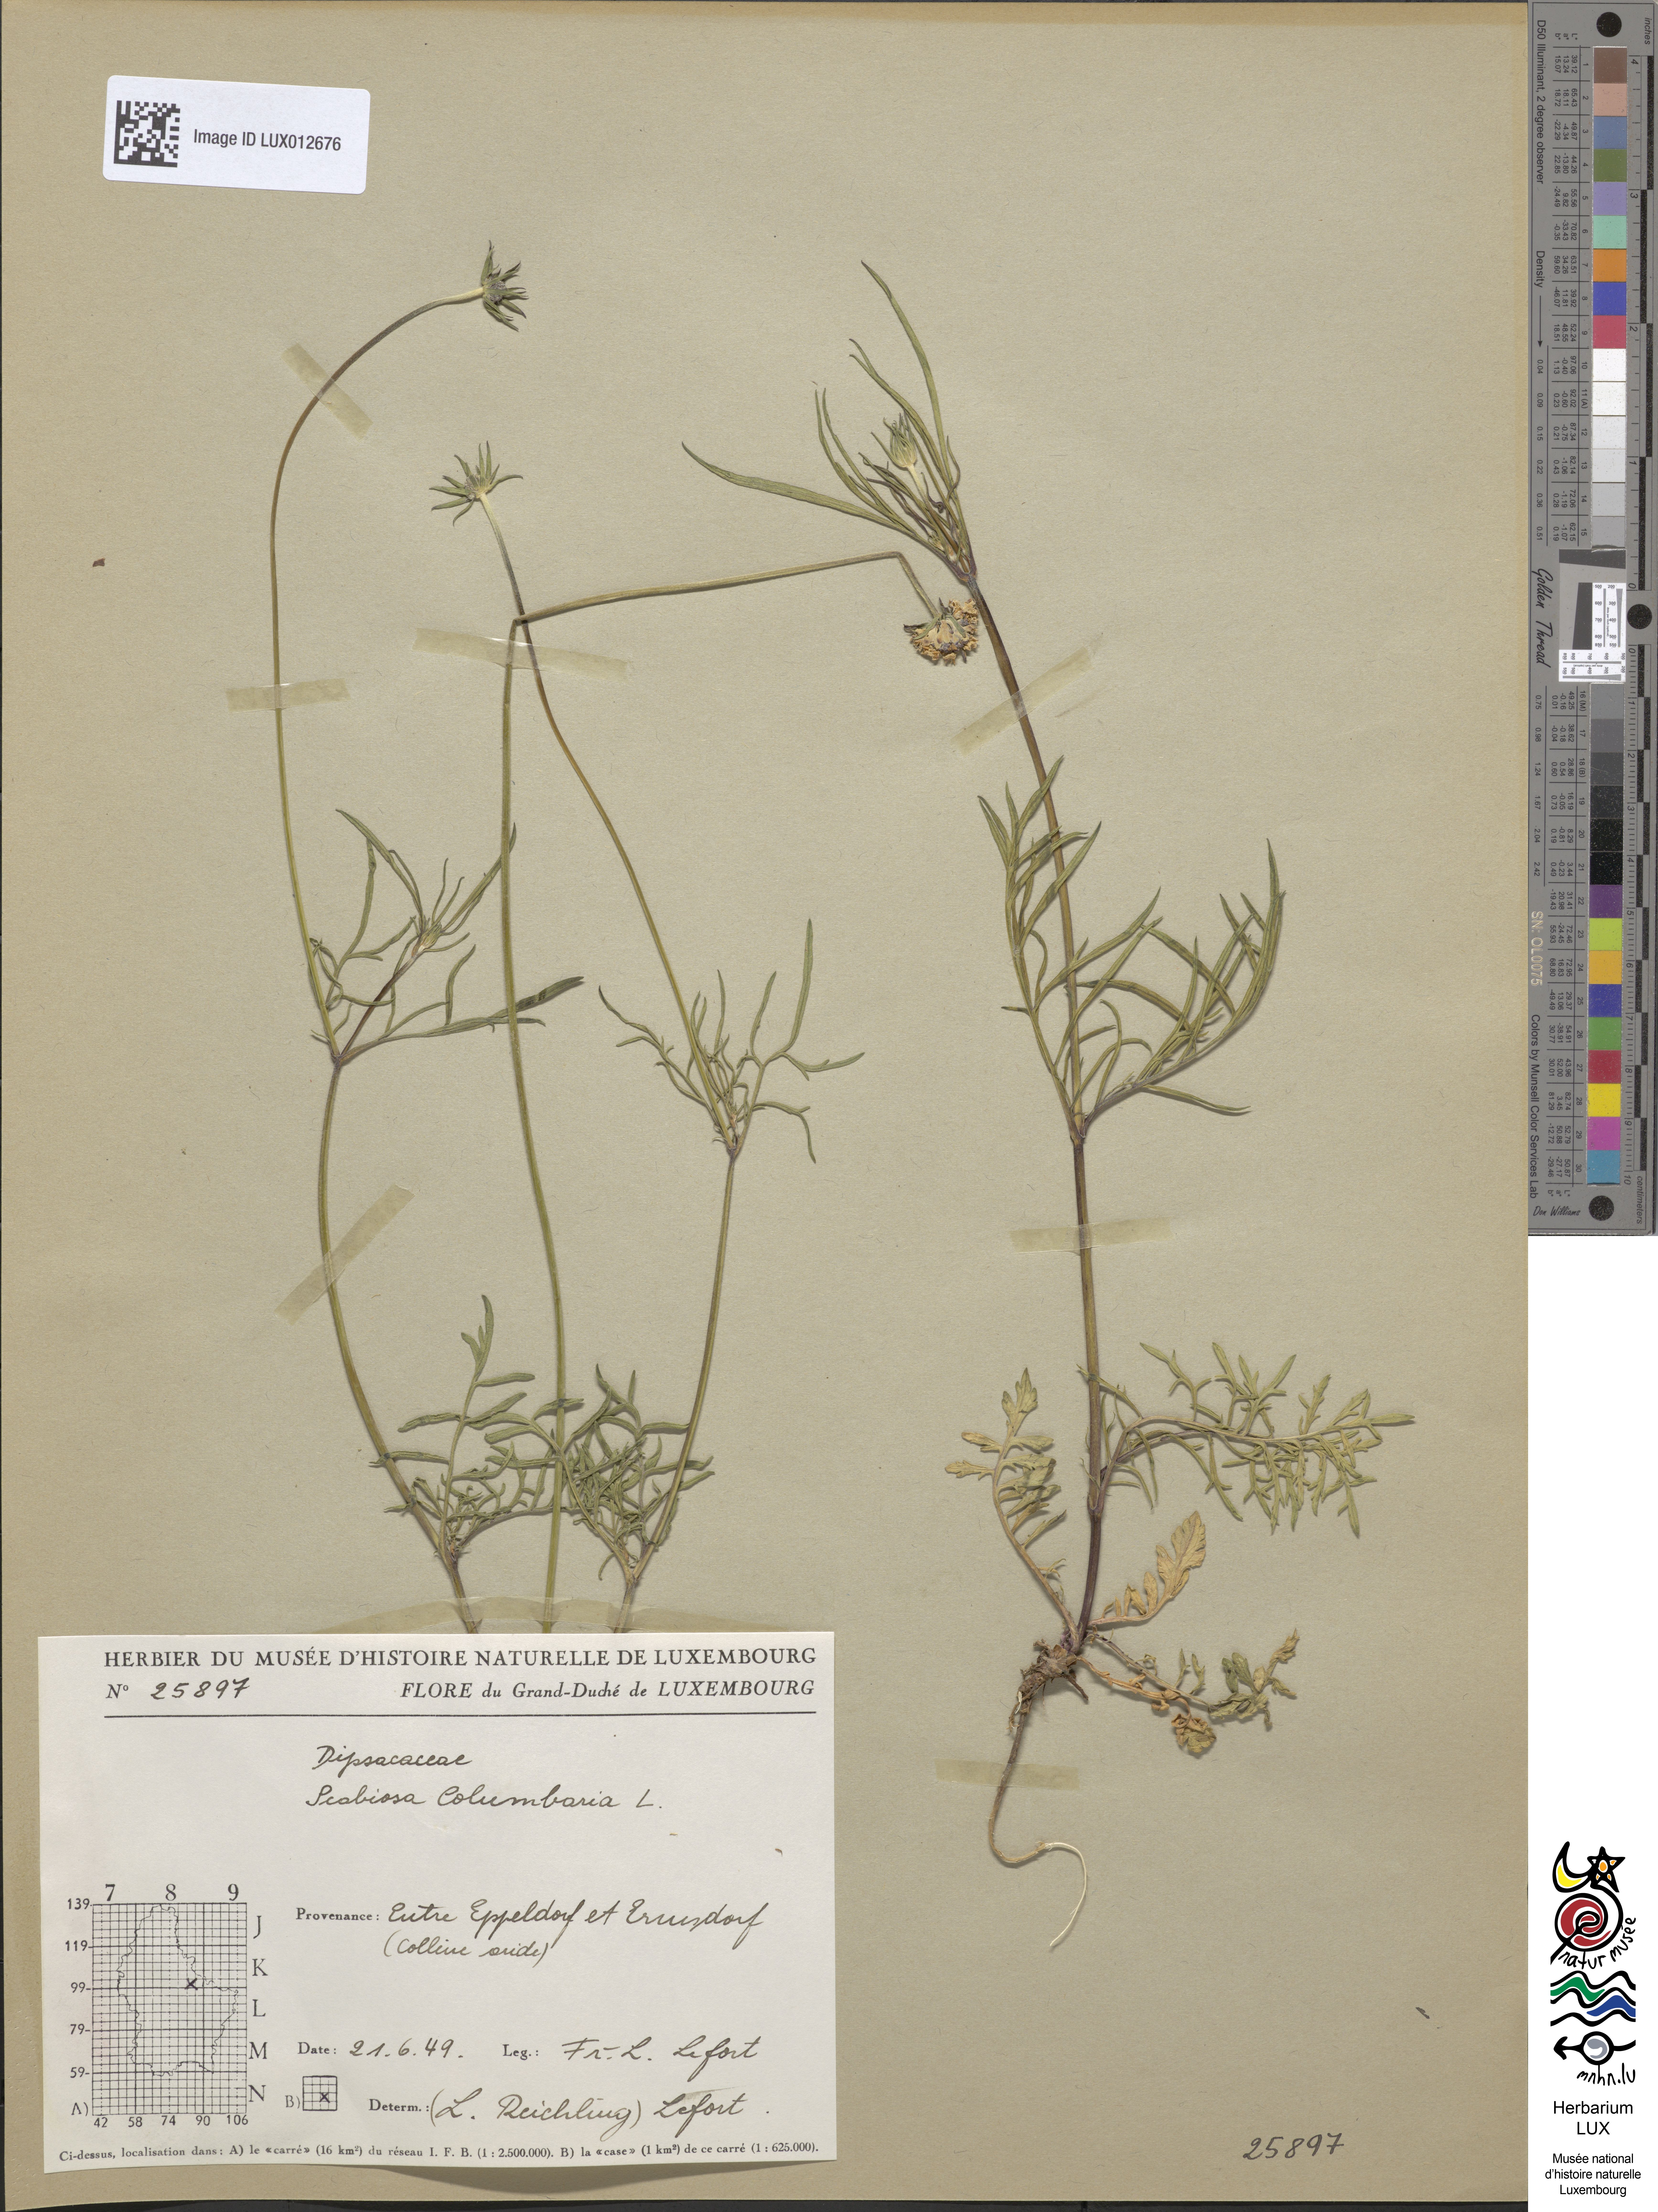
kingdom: Plantae
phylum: Tracheophyta
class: Magnoliopsida
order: Dipsacales
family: Caprifoliaceae
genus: Scabiosa
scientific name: Scabiosa columbaria
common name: Small scabious
